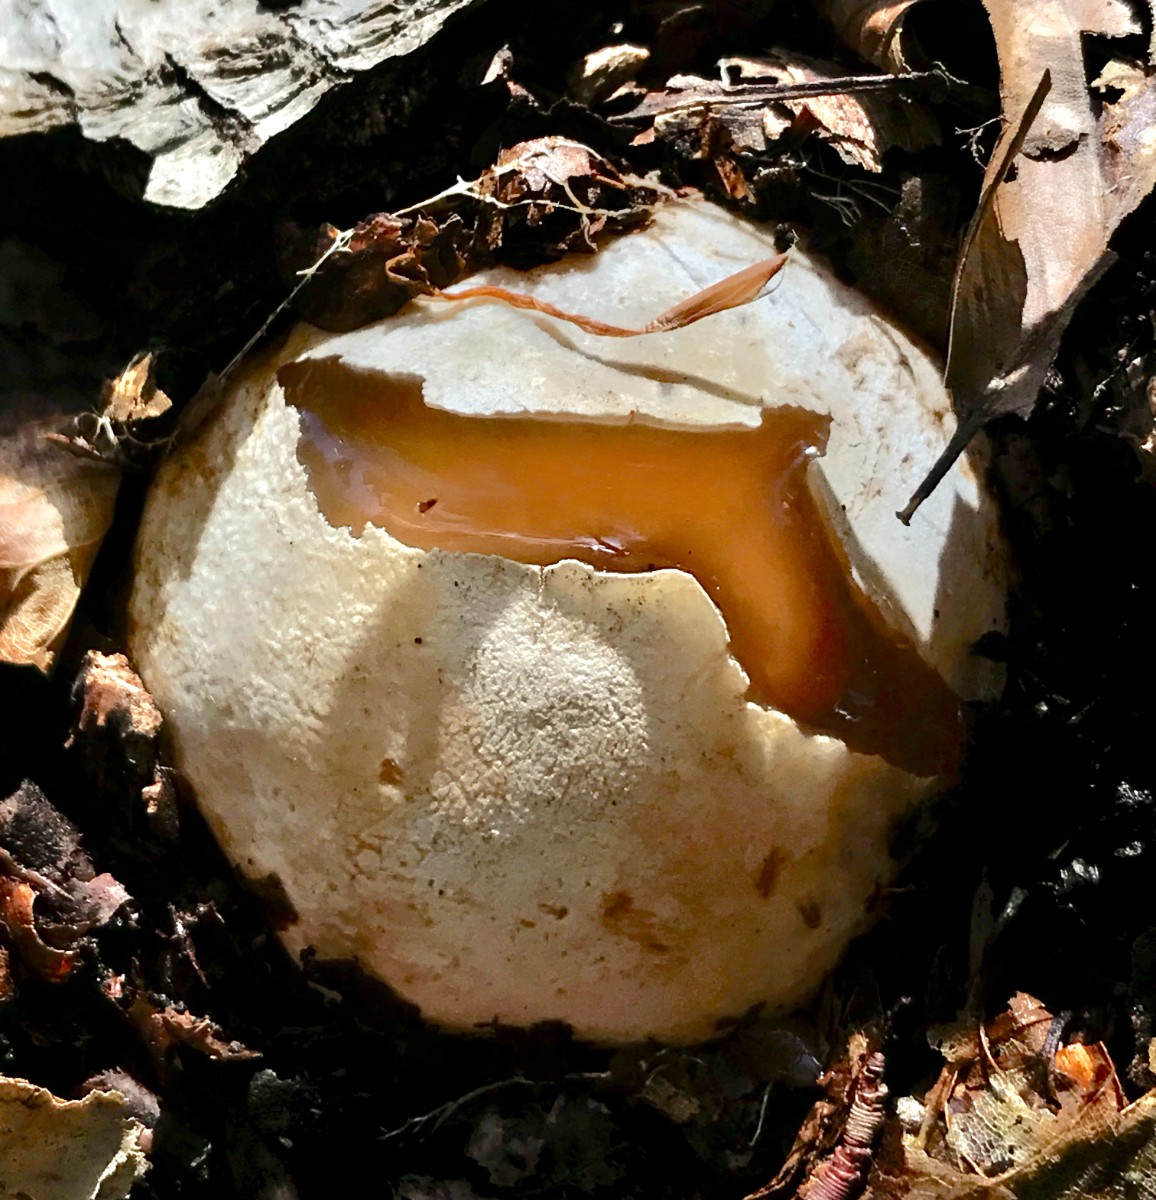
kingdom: Fungi
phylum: Basidiomycota
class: Agaricomycetes
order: Phallales
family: Phallaceae
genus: Phallus
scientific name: Phallus impudicus
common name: almindelig stinksvamp
